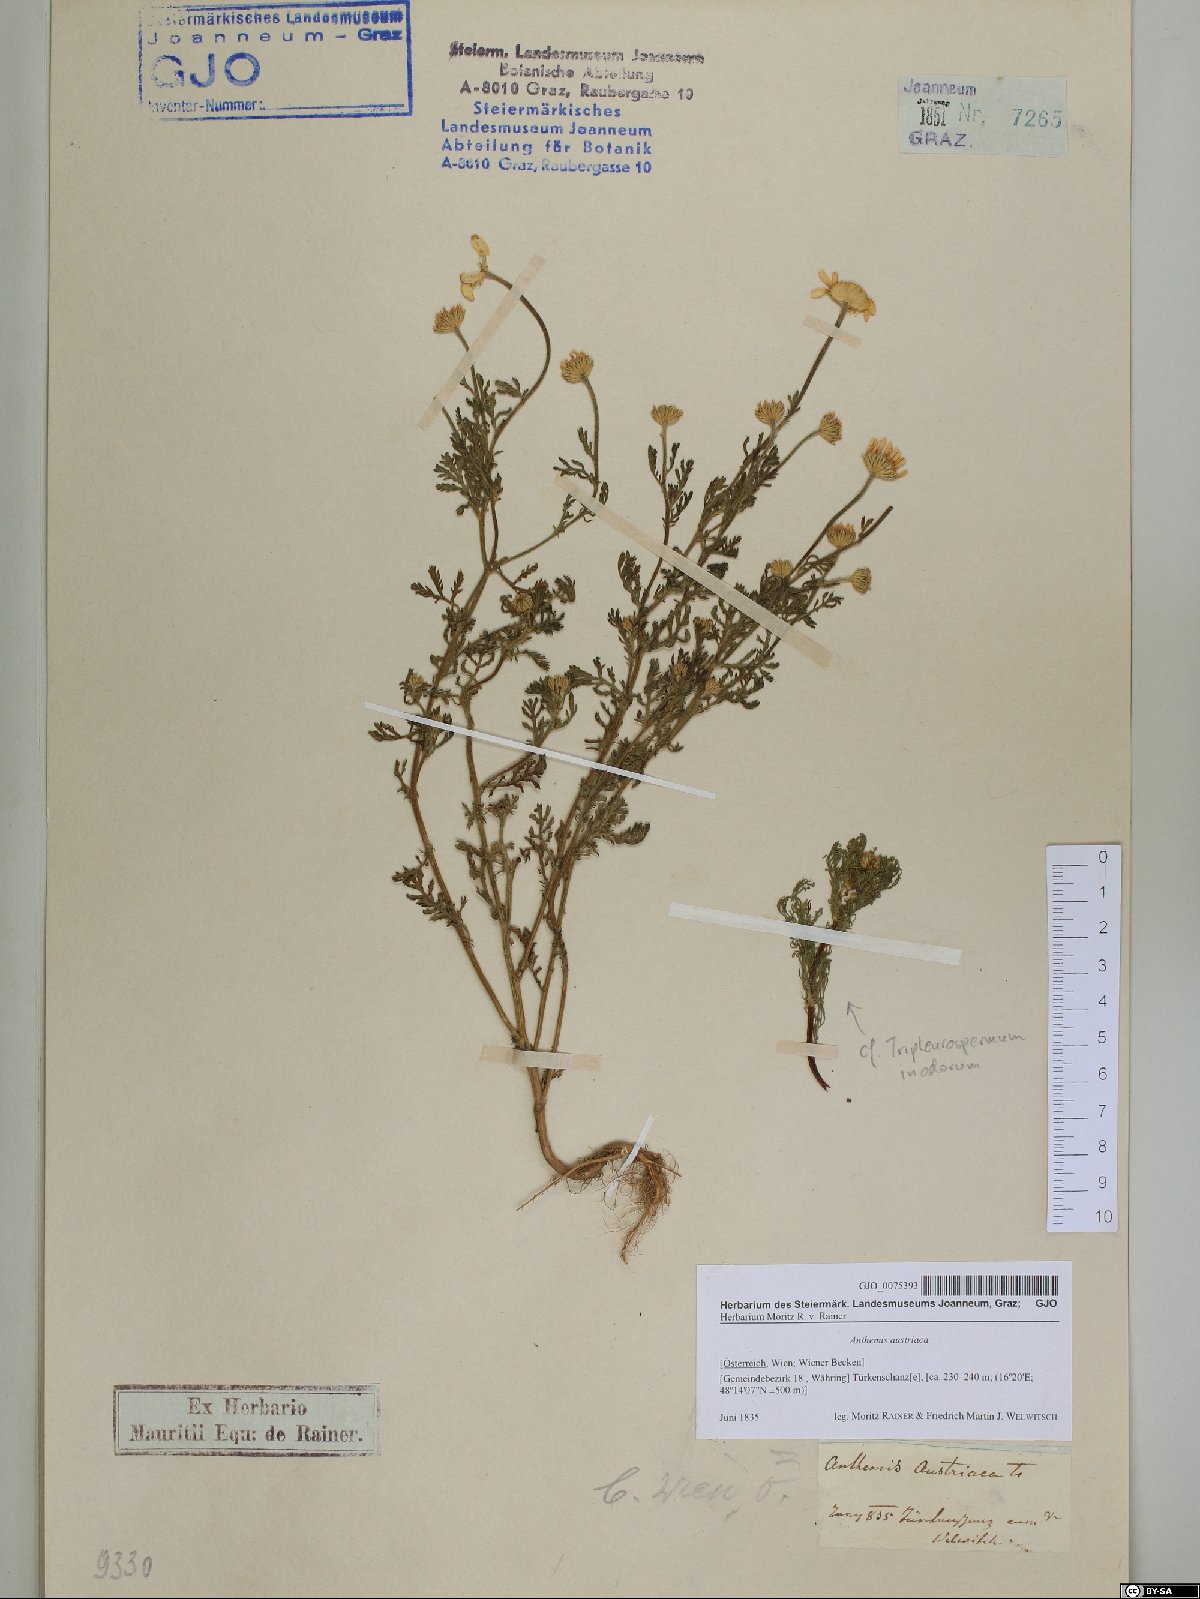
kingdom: Plantae
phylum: Tracheophyta
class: Magnoliopsida
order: Asterales
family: Asteraceae
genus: Cota
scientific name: Cota austriaca
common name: Austrian chamomile
